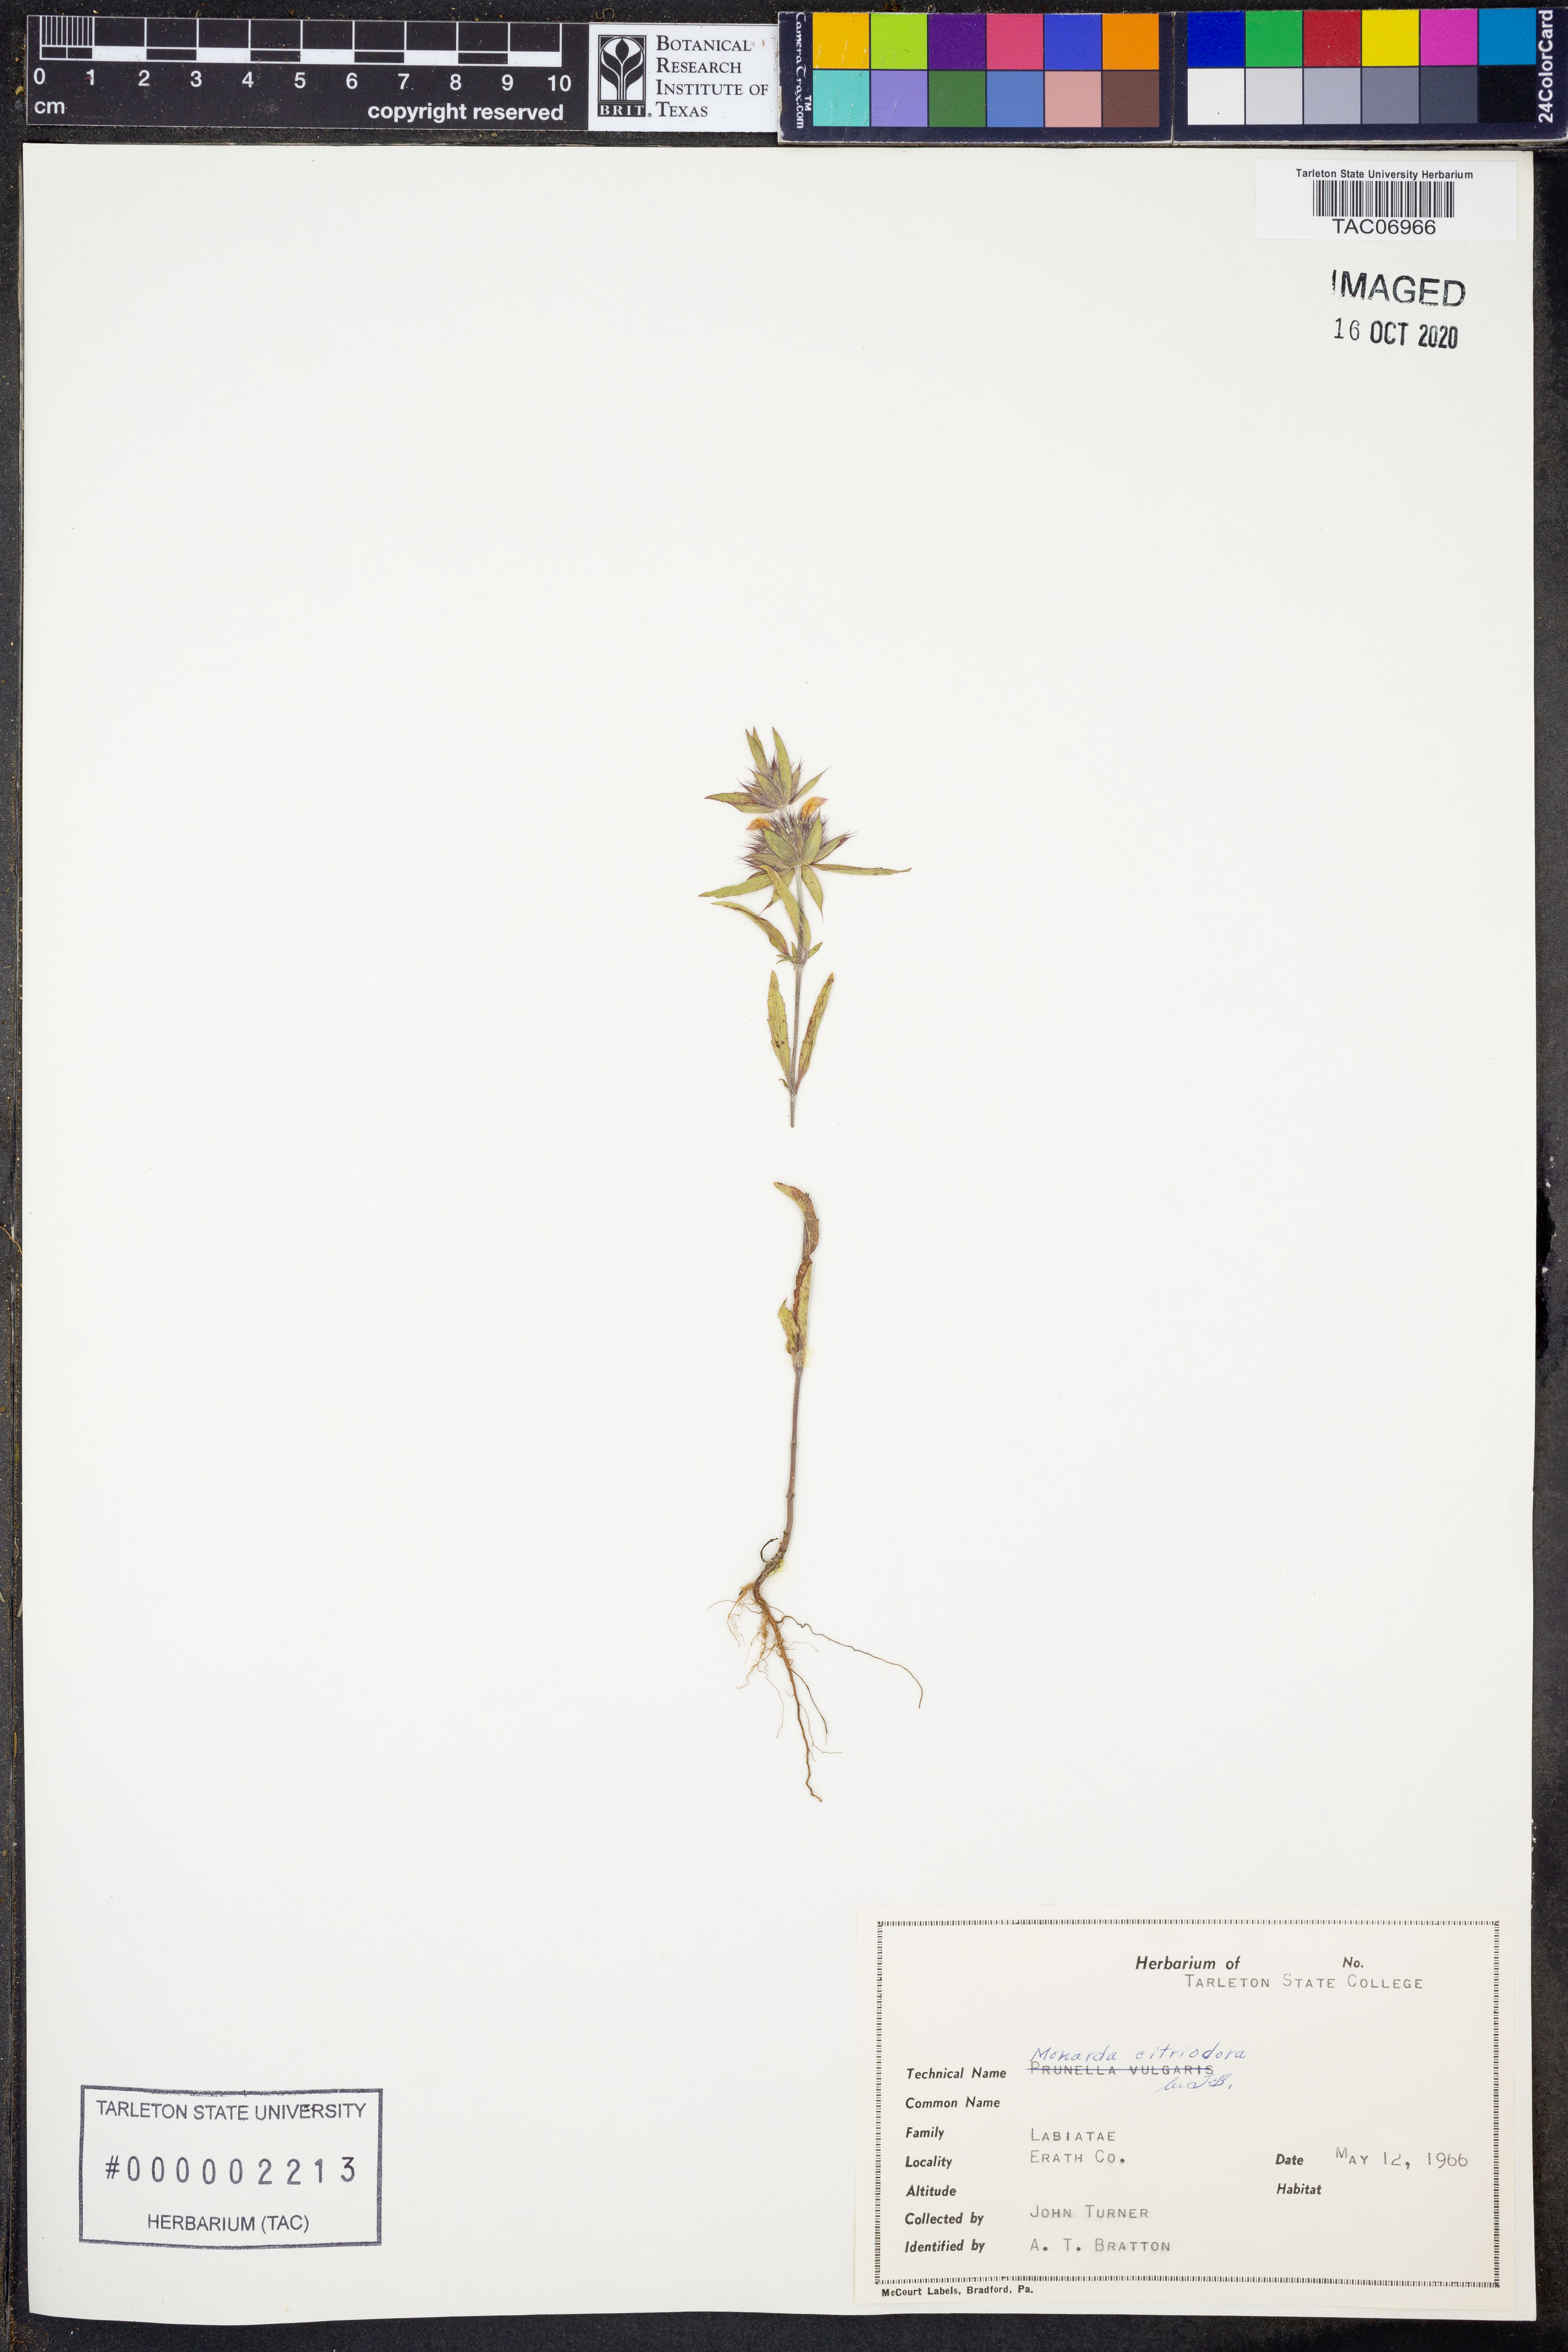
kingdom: Plantae
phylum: Tracheophyta
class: Magnoliopsida
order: Lamiales
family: Lamiaceae
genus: Monarda
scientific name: Monarda citriodora
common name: Lemon beebalm
